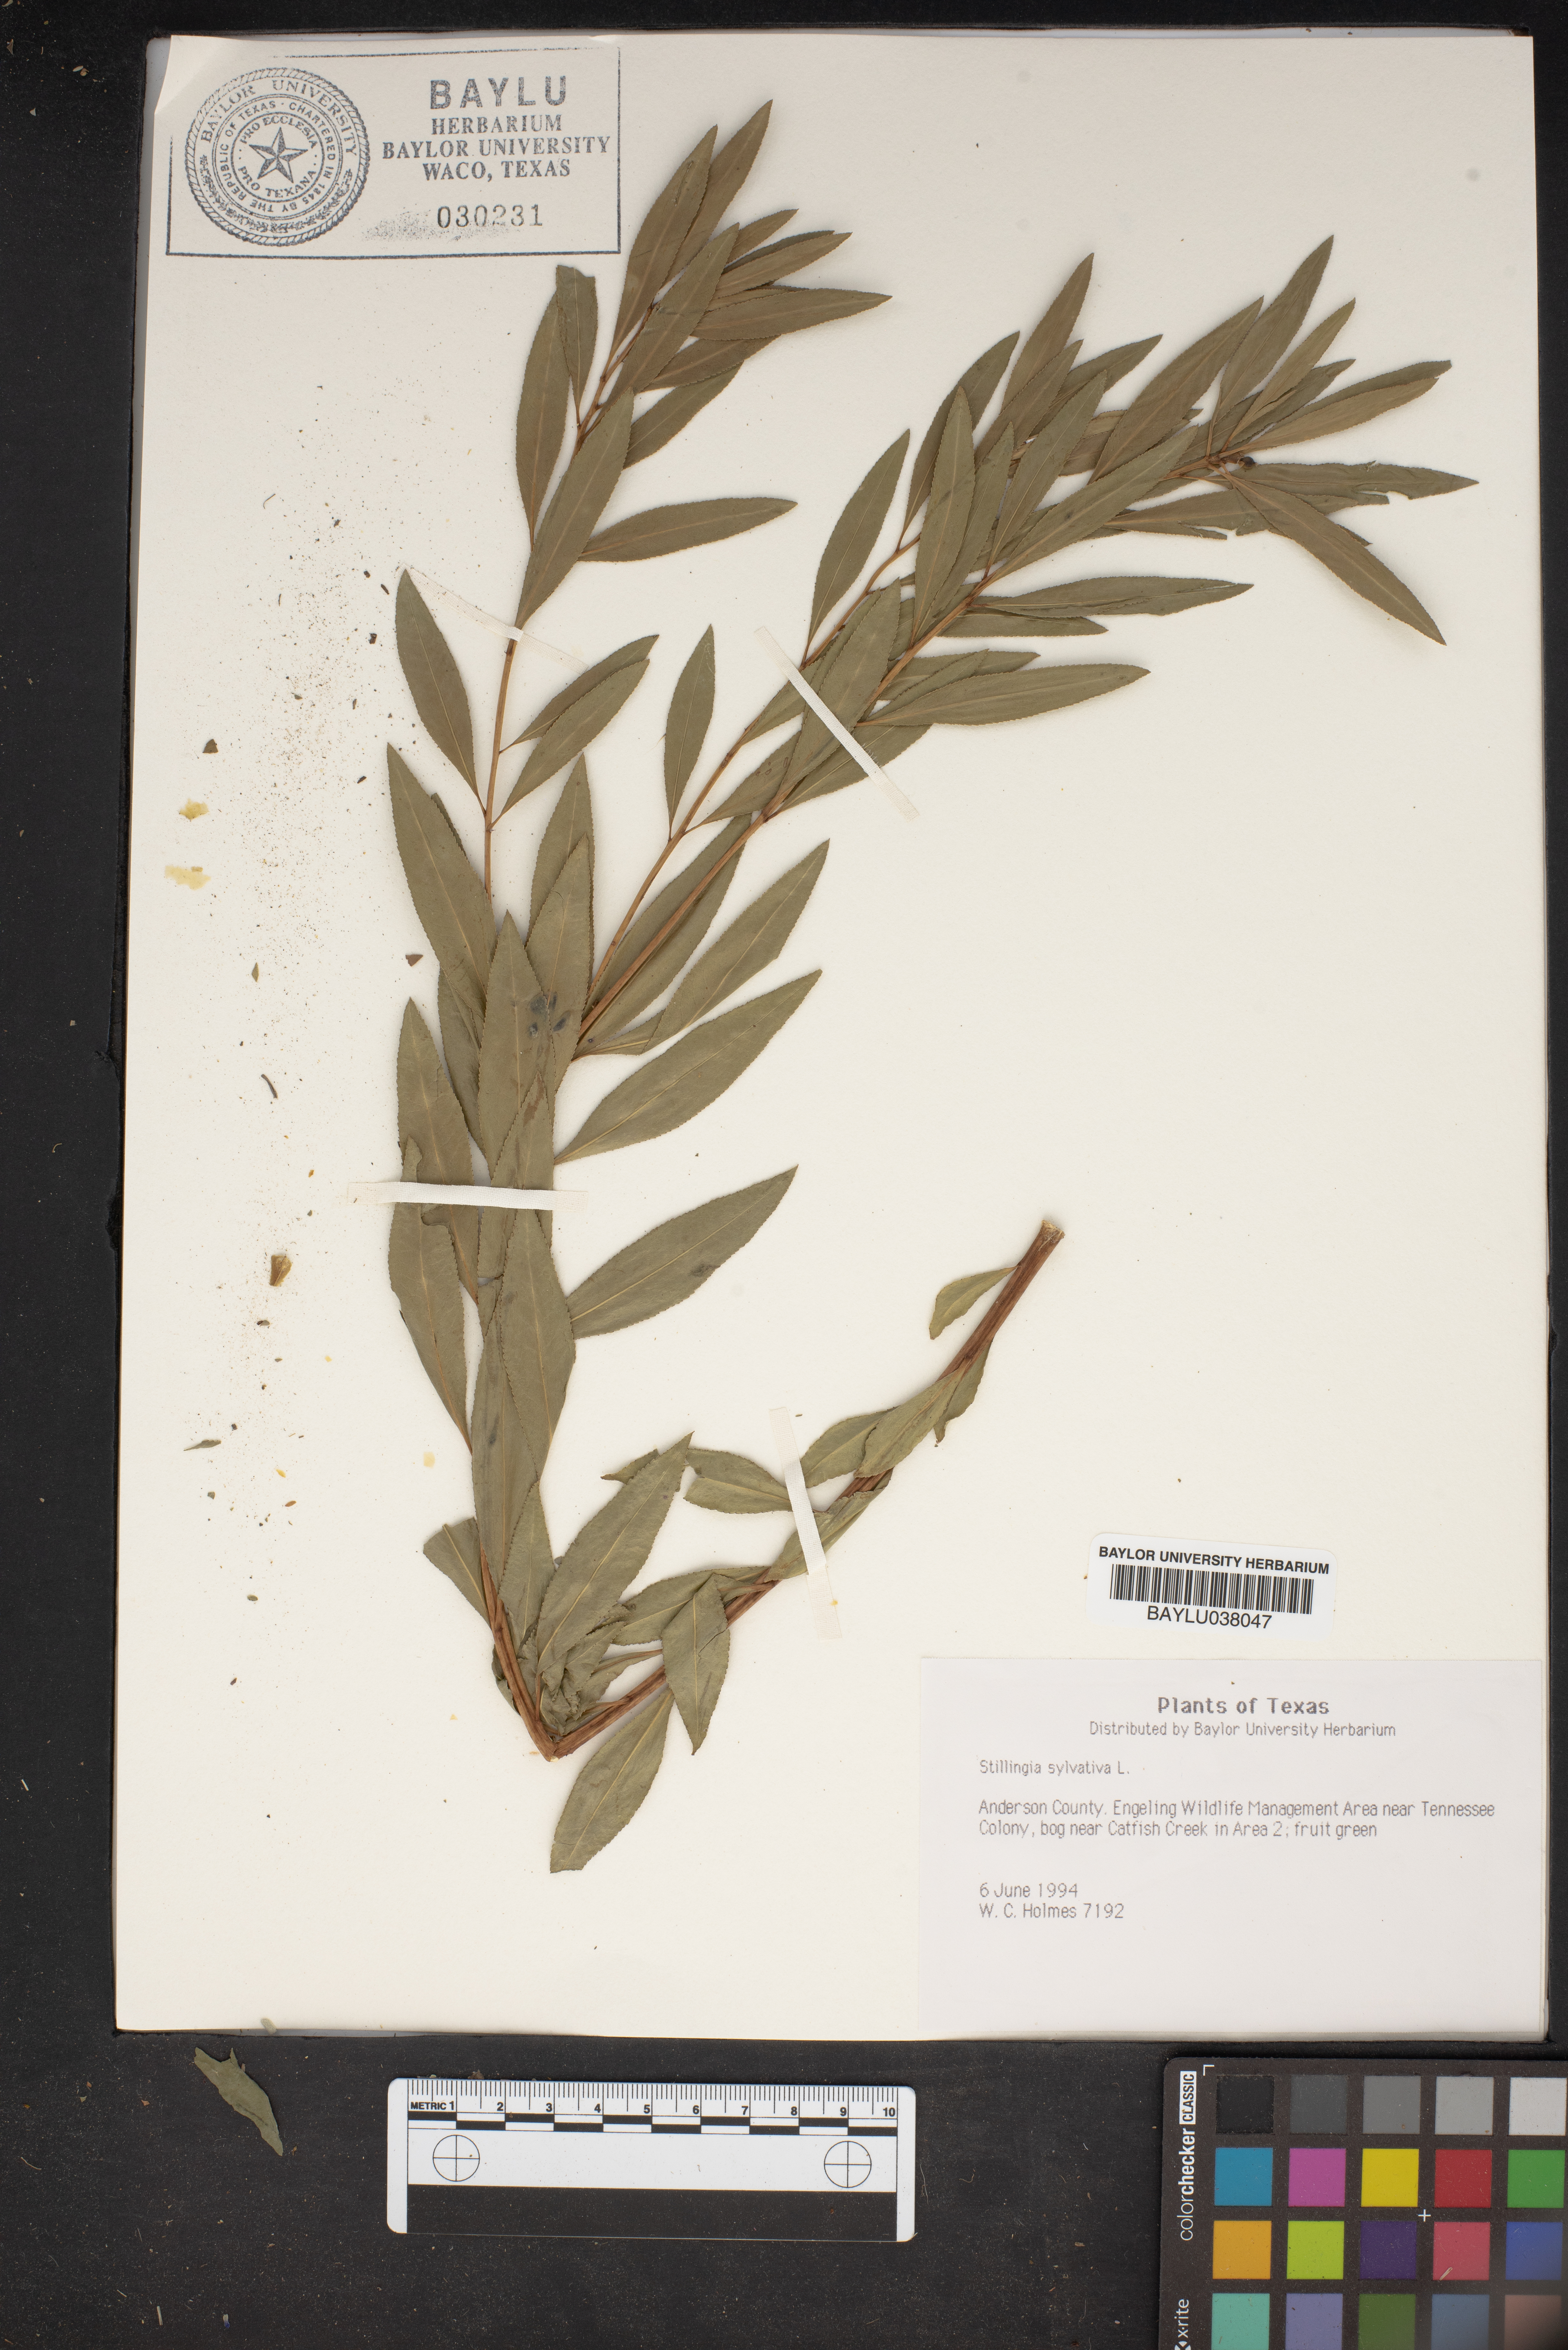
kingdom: Plantae
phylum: Tracheophyta
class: Magnoliopsida
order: Malpighiales
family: Euphorbiaceae
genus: Stillingia
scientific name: Stillingia sylvatica
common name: Queen's-delight
